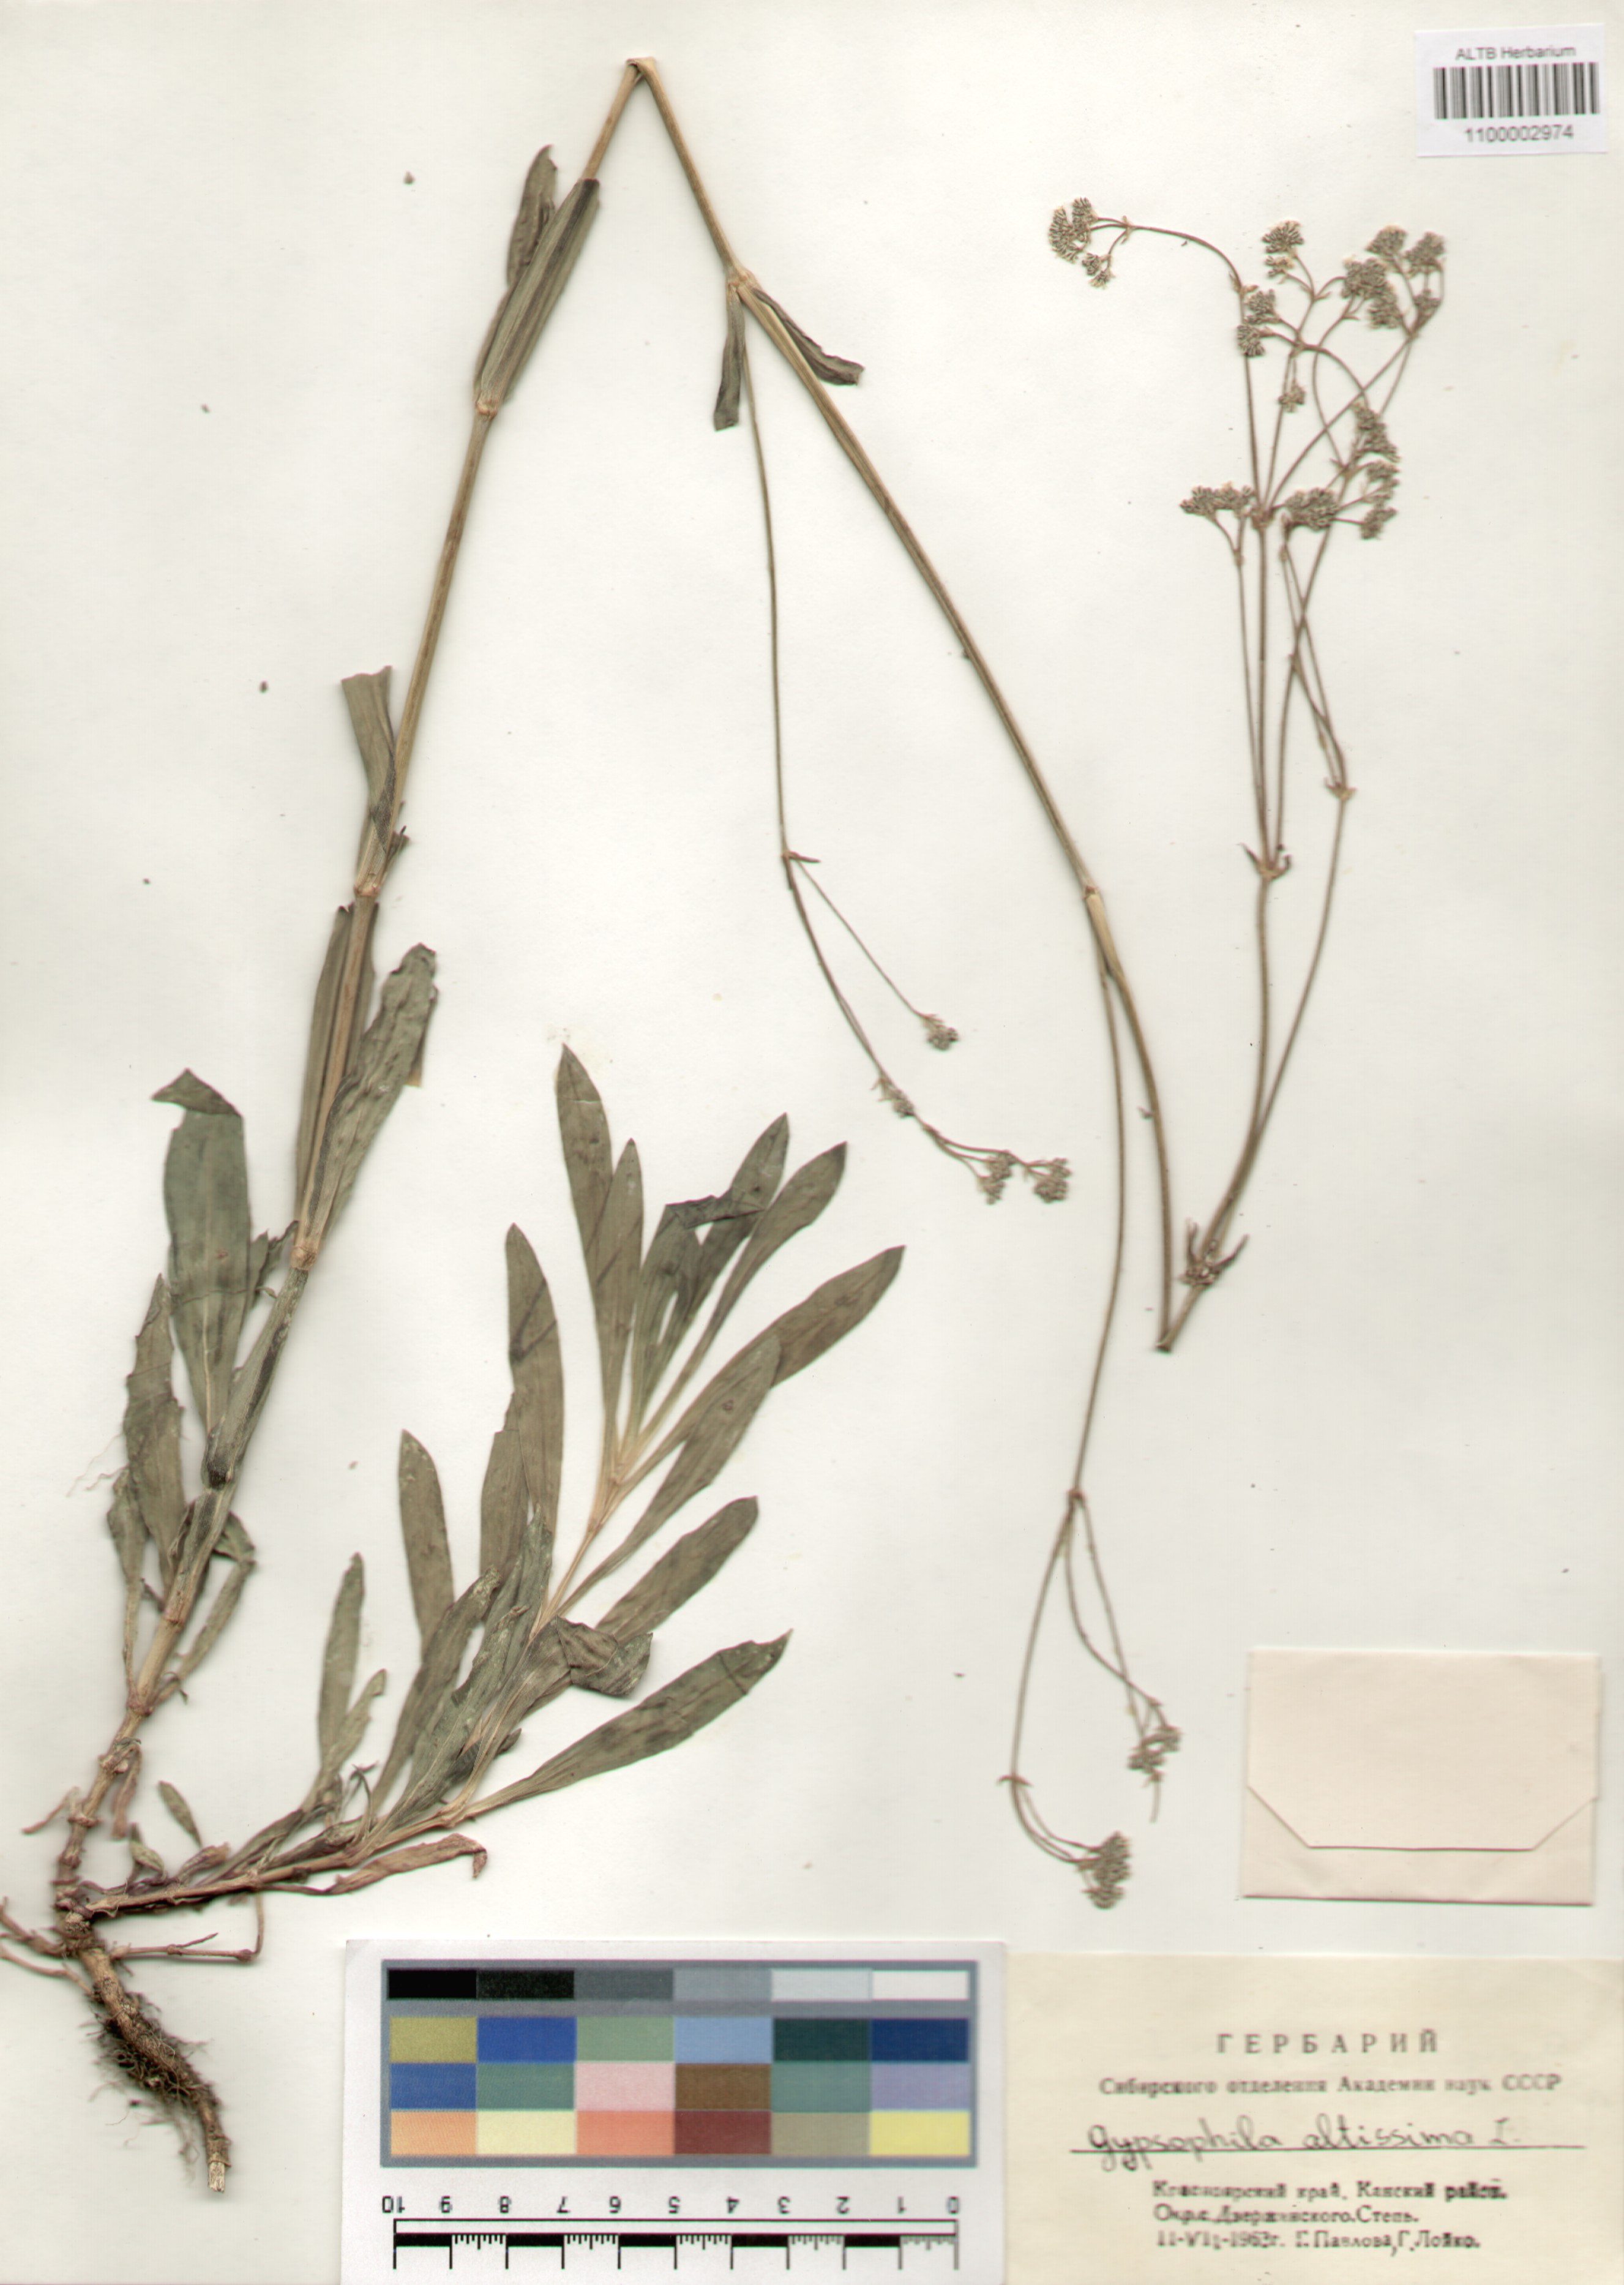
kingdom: Plantae
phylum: Tracheophyta
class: Magnoliopsida
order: Caryophyllales
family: Caryophyllaceae
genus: Gypsophila
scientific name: Gypsophila altissima
